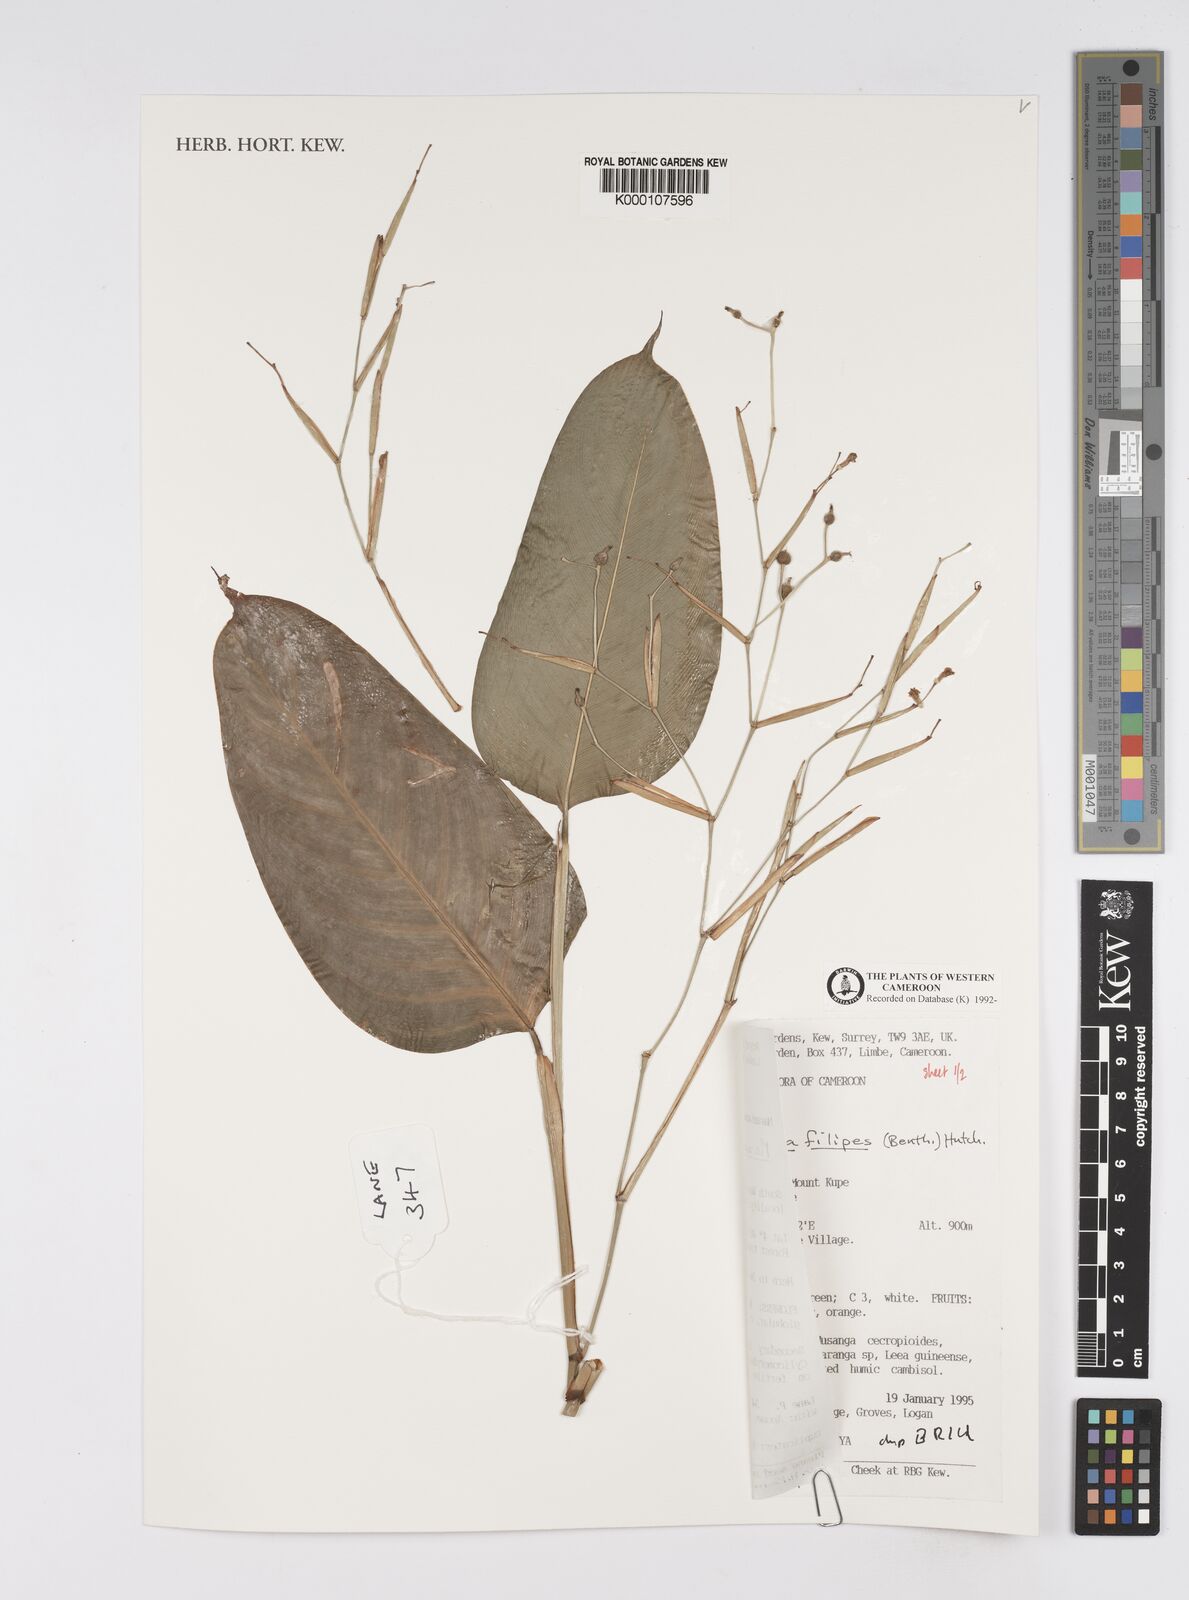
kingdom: Plantae
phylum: Tracheophyta
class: Liliopsida
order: Zingiberales
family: Marantaceae
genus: Marantochloa
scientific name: Marantochloa filipes
